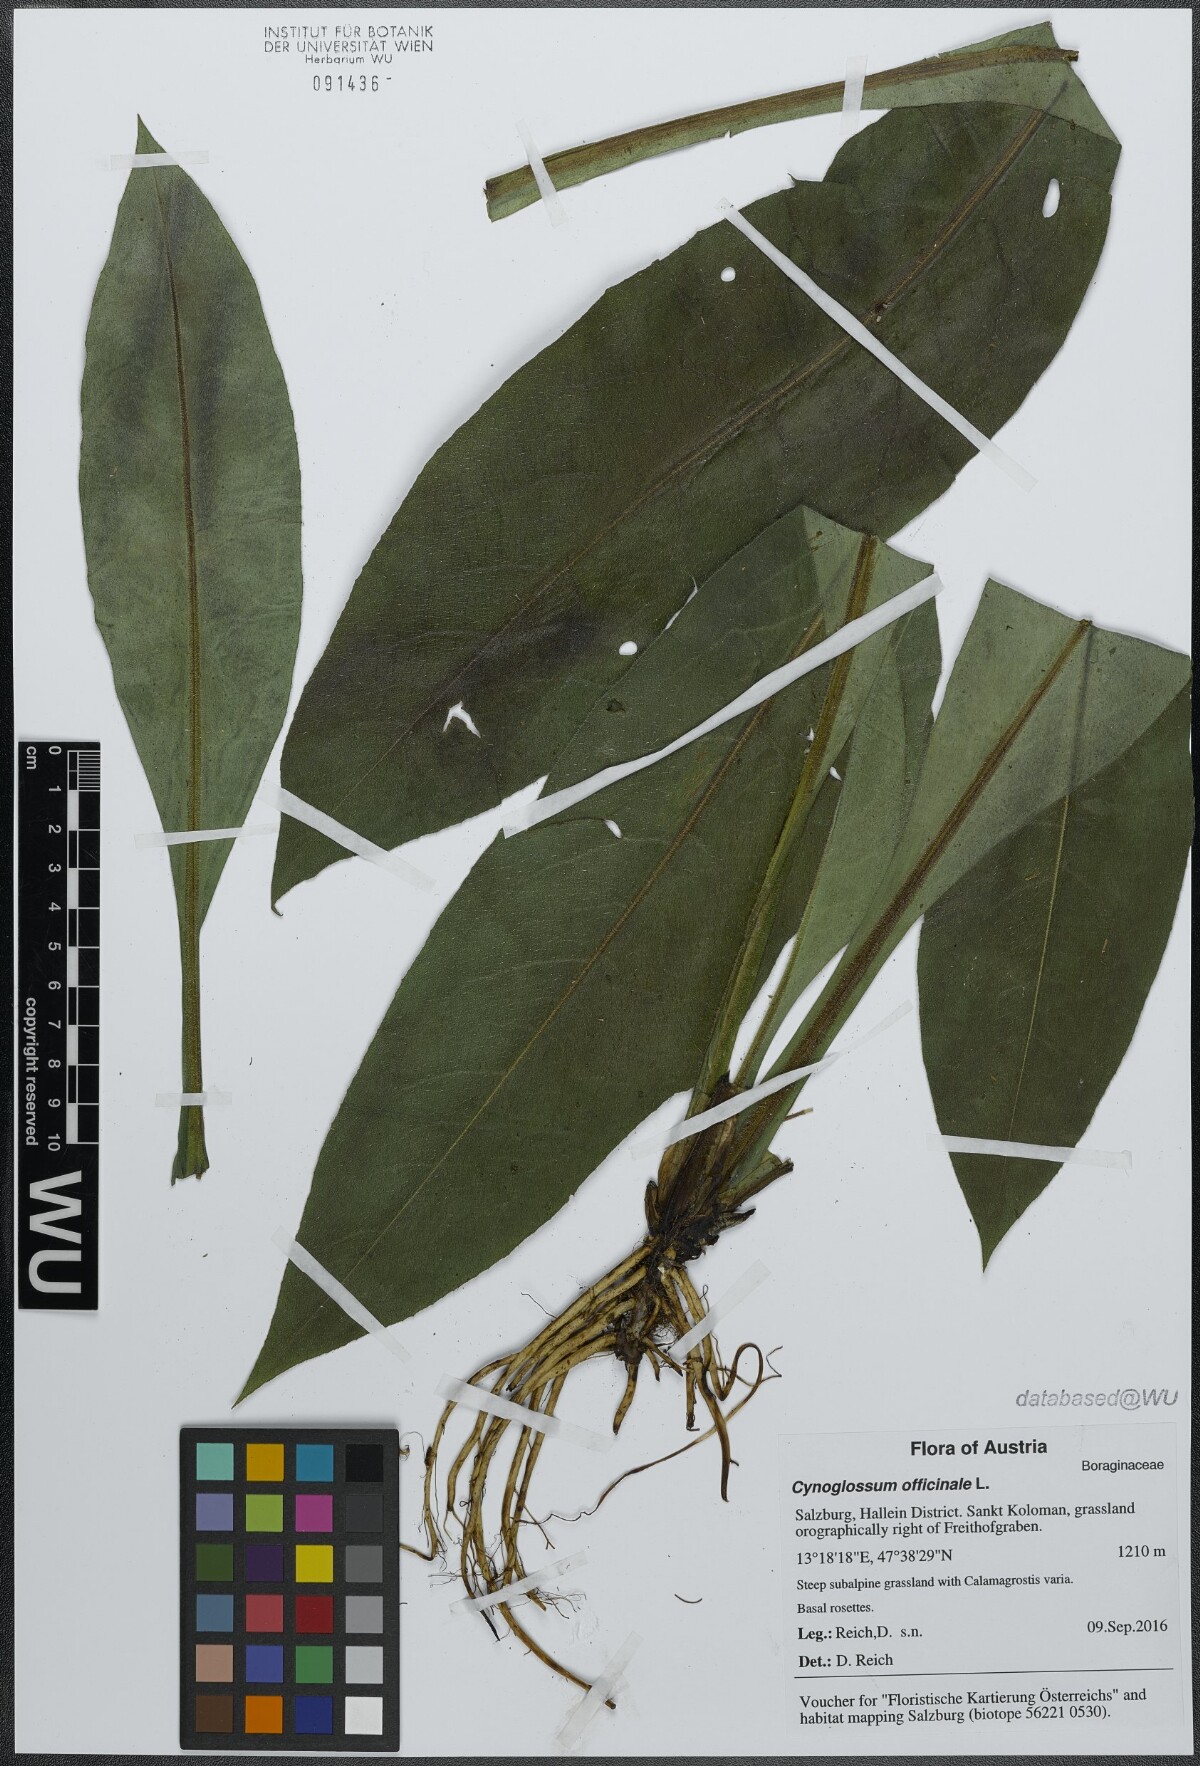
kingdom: Plantae
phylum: Tracheophyta
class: Magnoliopsida
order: Boraginales
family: Boraginaceae
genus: Cynoglossum
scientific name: Cynoglossum officinale
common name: Hound's-tongue
